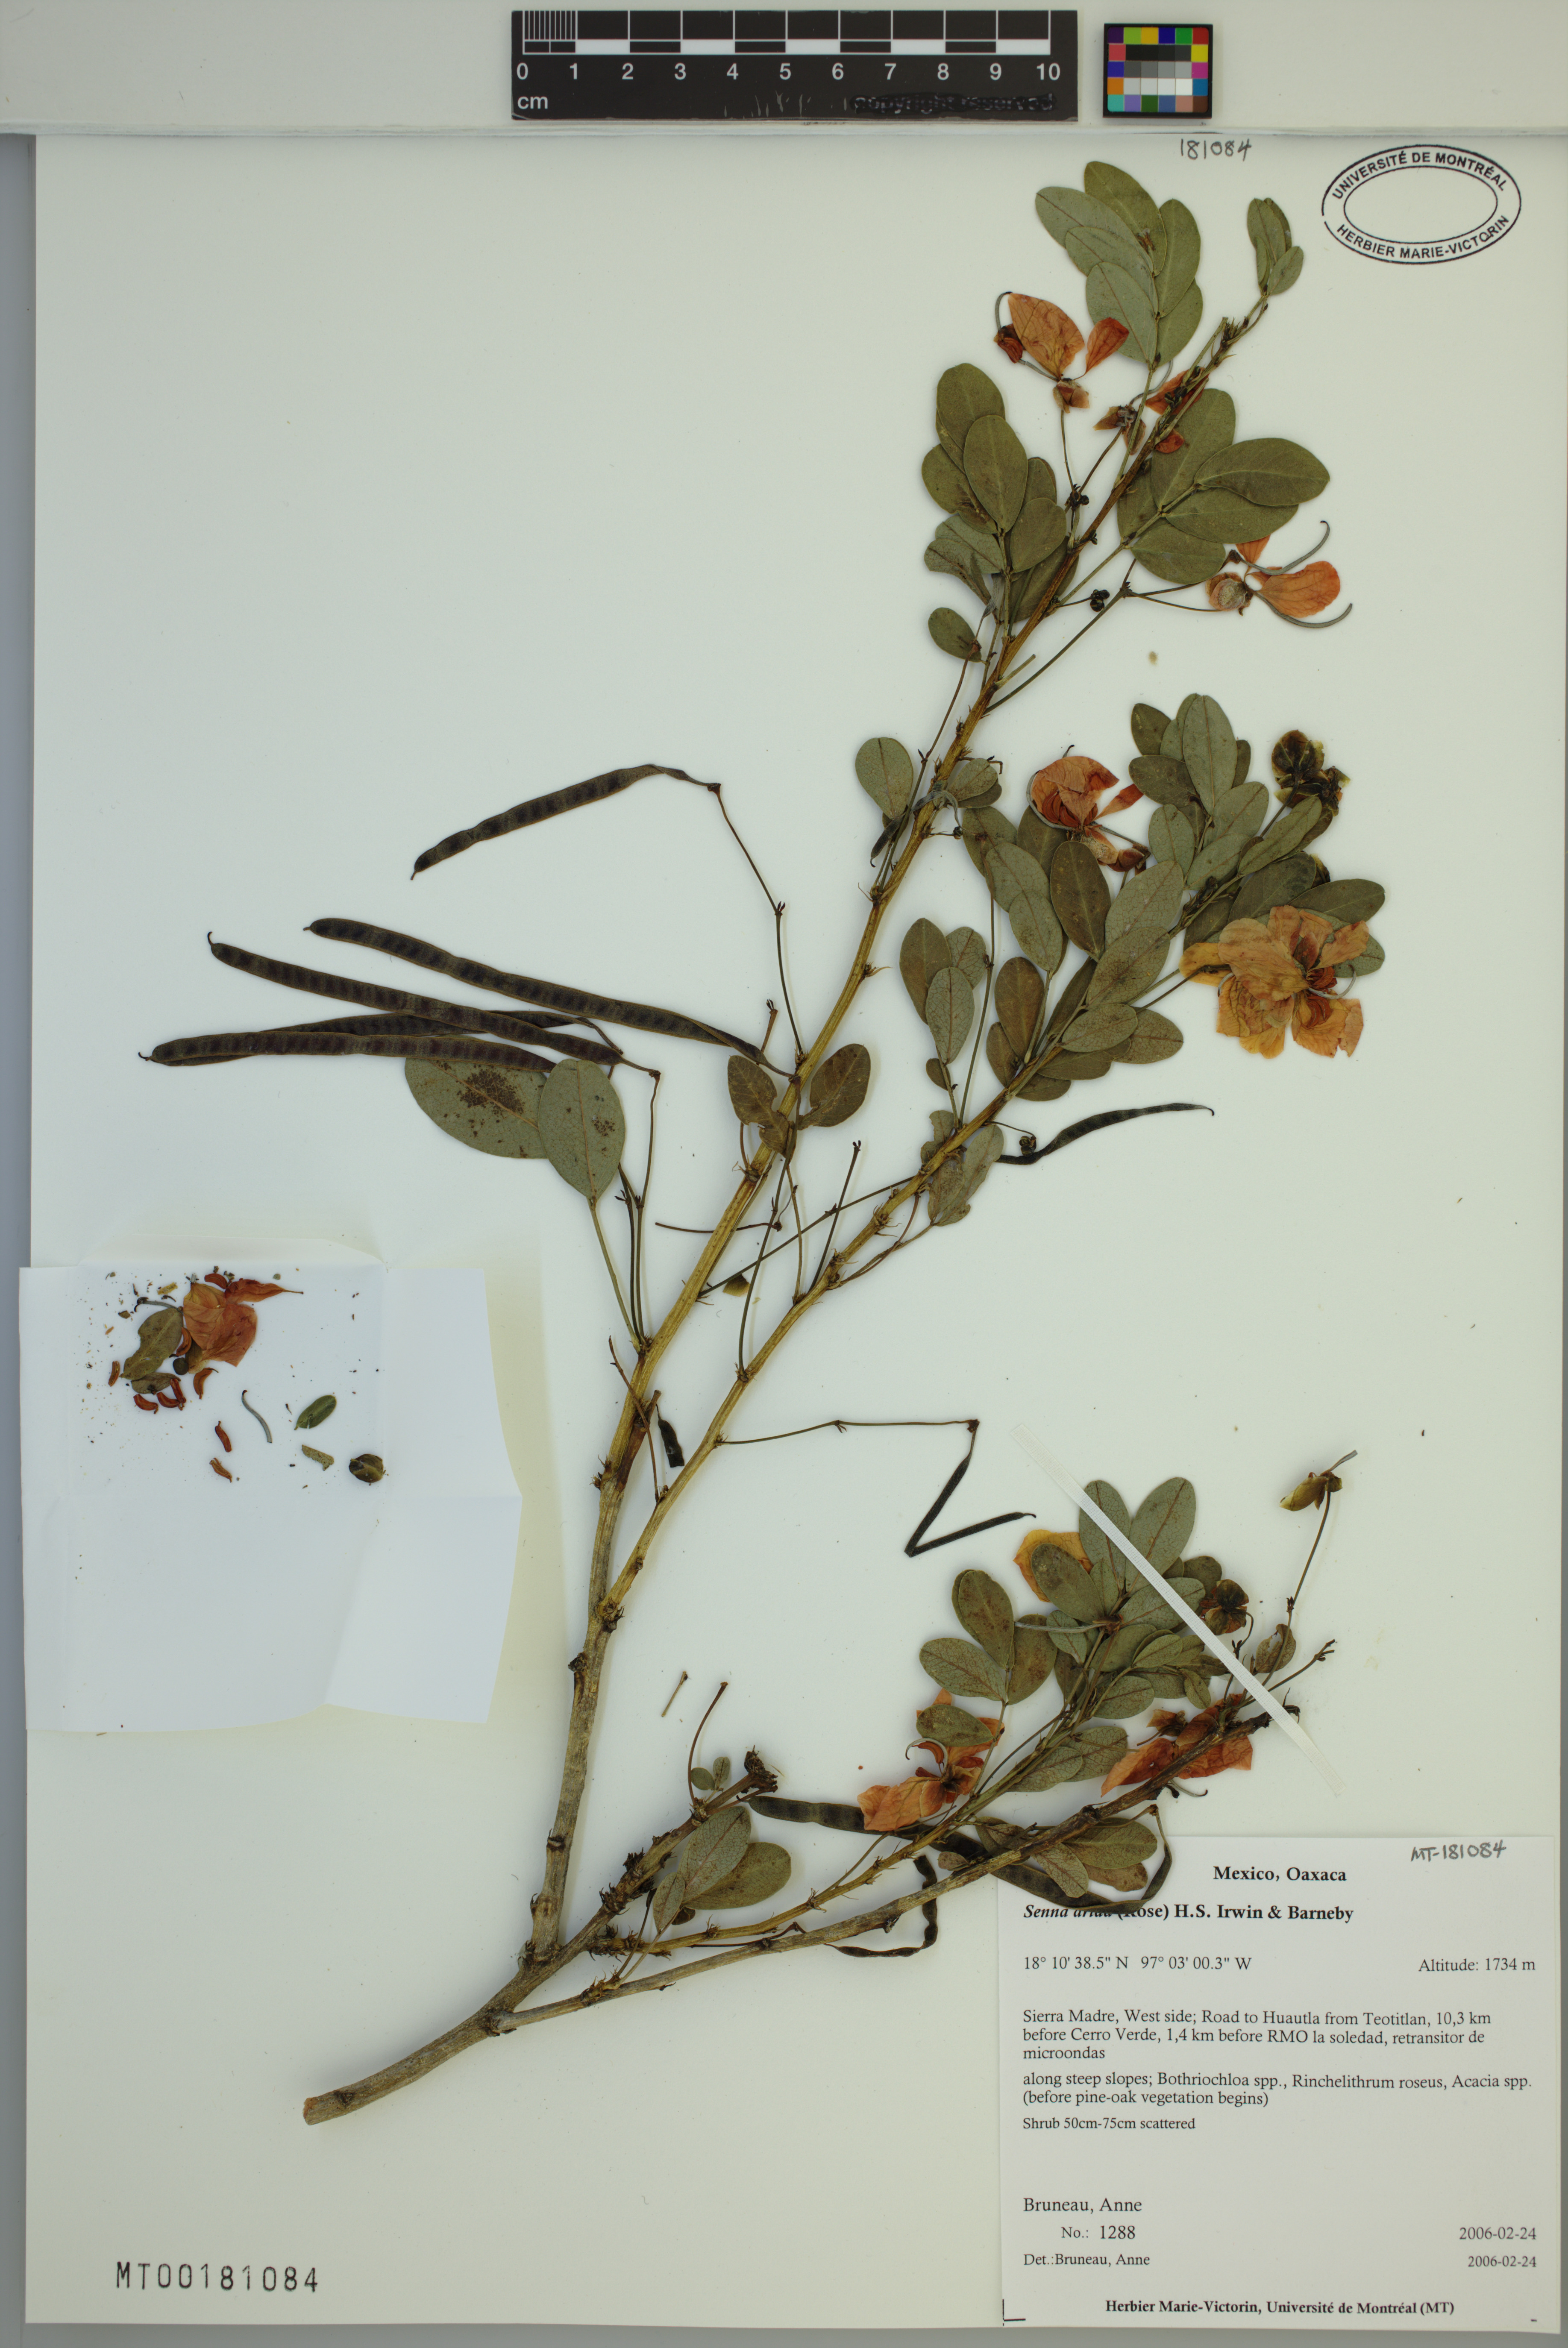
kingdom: Plantae
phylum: Tracheophyta
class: Magnoliopsida
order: Fabales
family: Fabaceae
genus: Senna
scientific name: Senna arida
